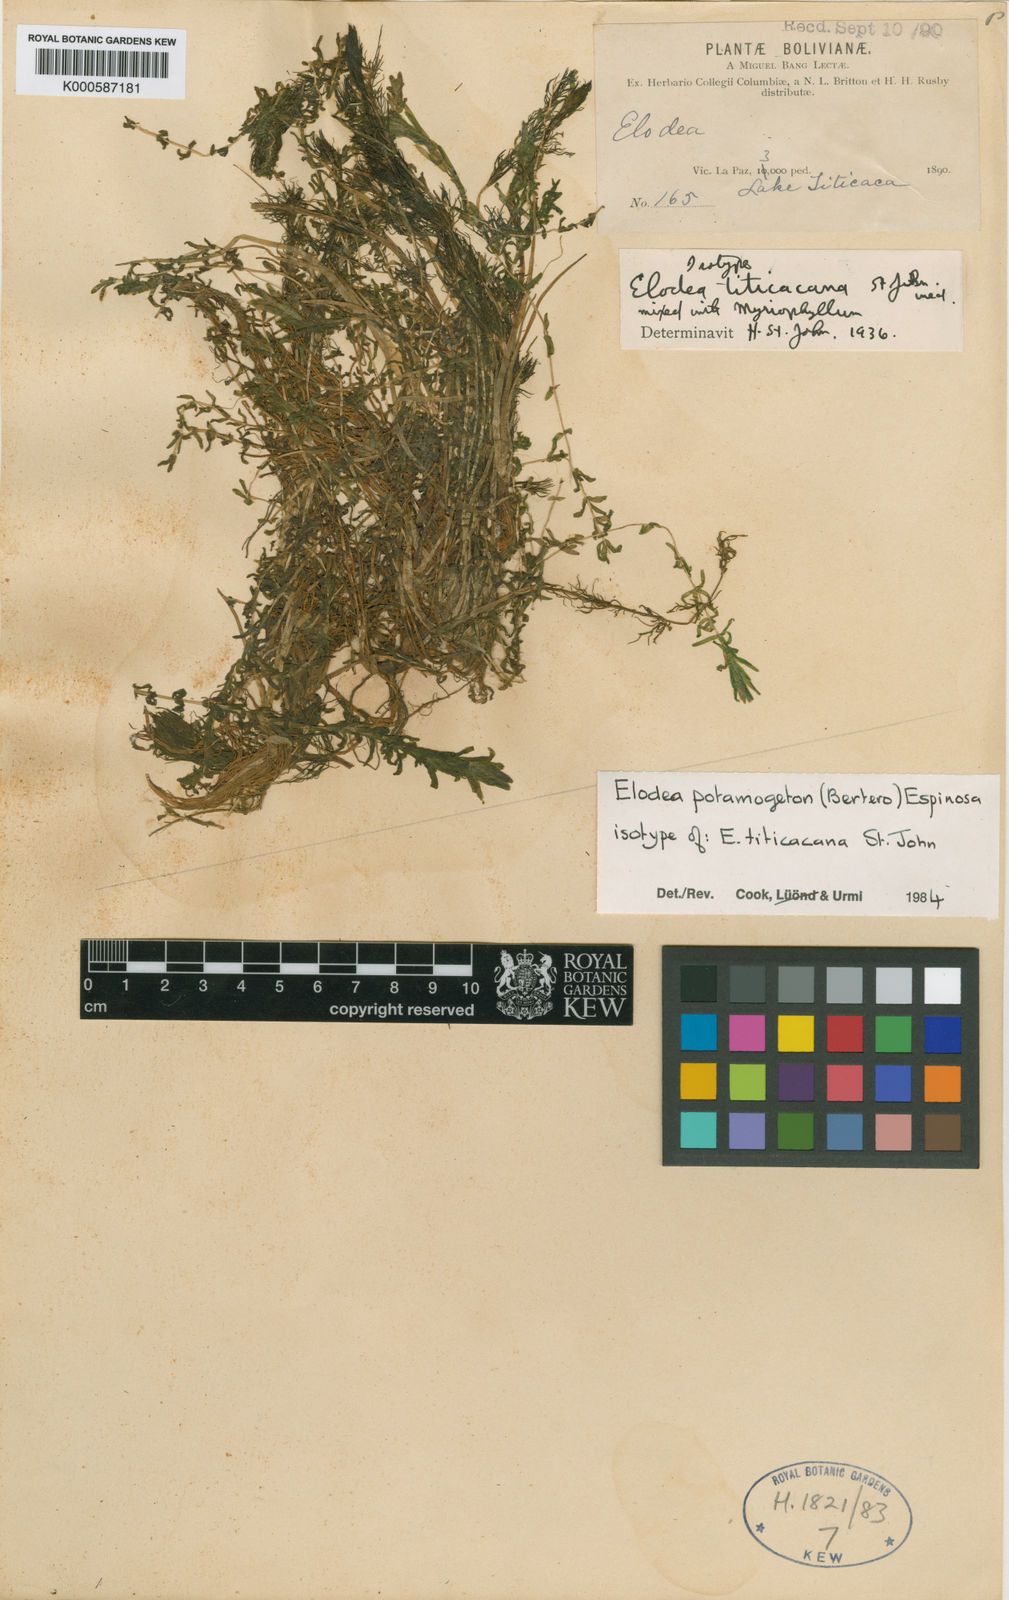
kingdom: Plantae
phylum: Tracheophyta
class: Liliopsida
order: Alismatales
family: Hydrocharitaceae
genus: Elodea
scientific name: Elodea potamogeton
